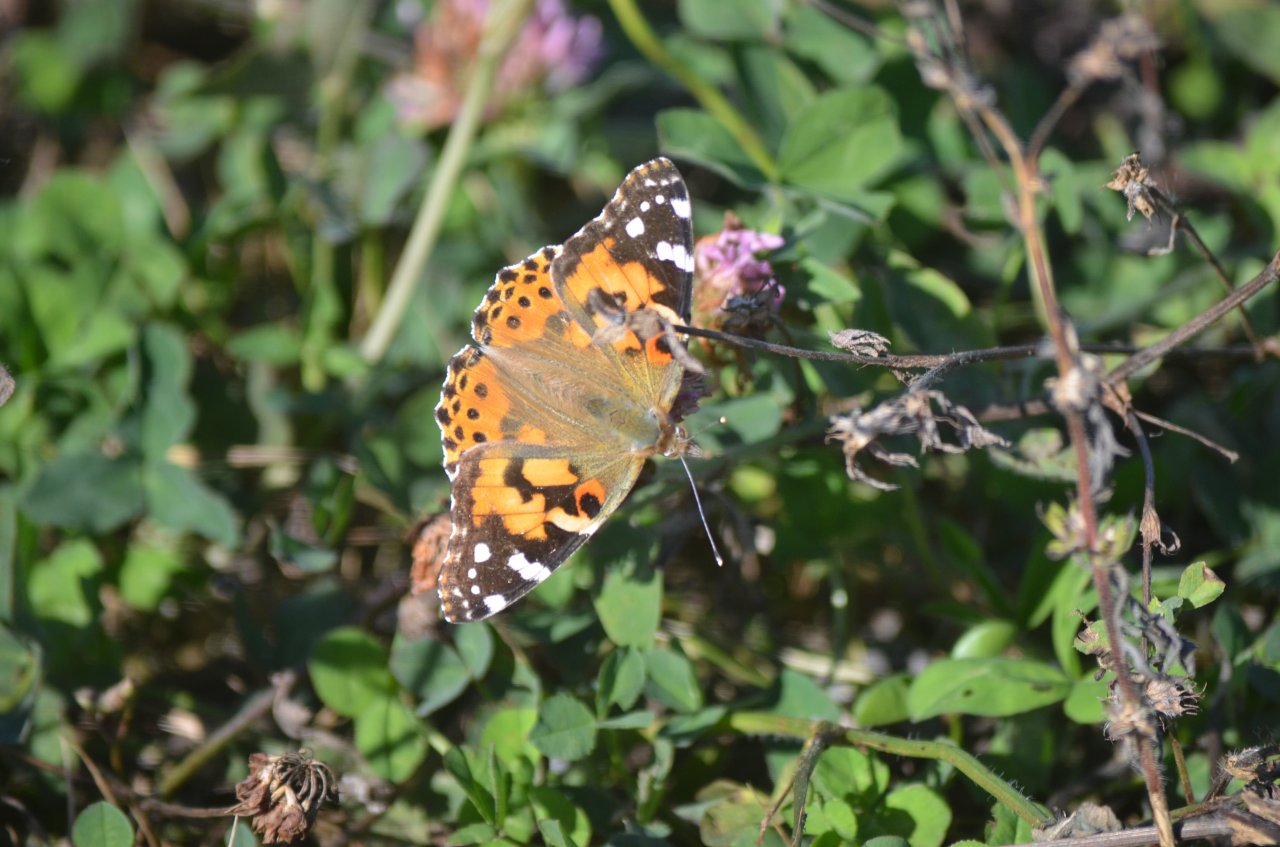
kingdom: Animalia
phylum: Arthropoda
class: Insecta
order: Lepidoptera
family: Nymphalidae
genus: Vanessa
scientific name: Vanessa cardui
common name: Painted Lady
